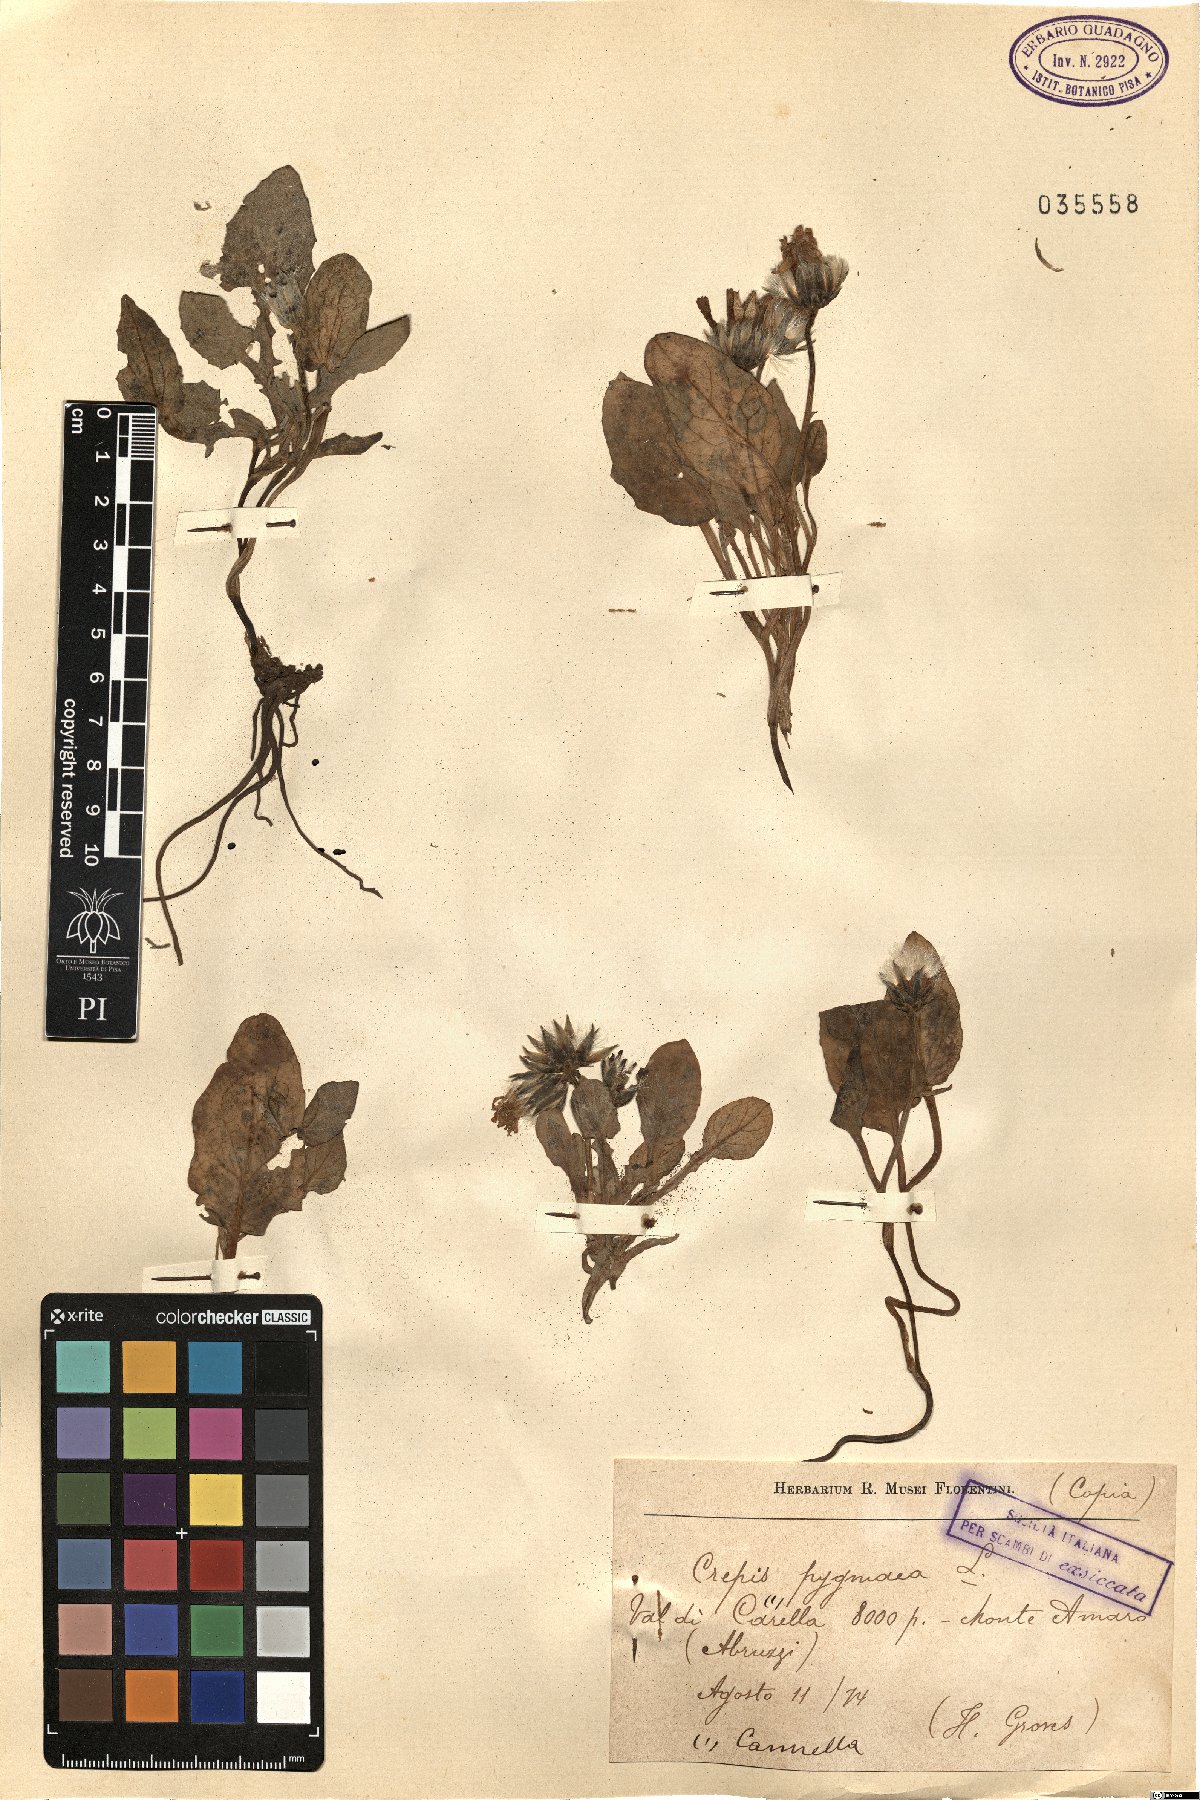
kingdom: Plantae
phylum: Tracheophyta
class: Magnoliopsida
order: Asterales
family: Asteraceae
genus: Crepis
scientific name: Crepis pygmaea
